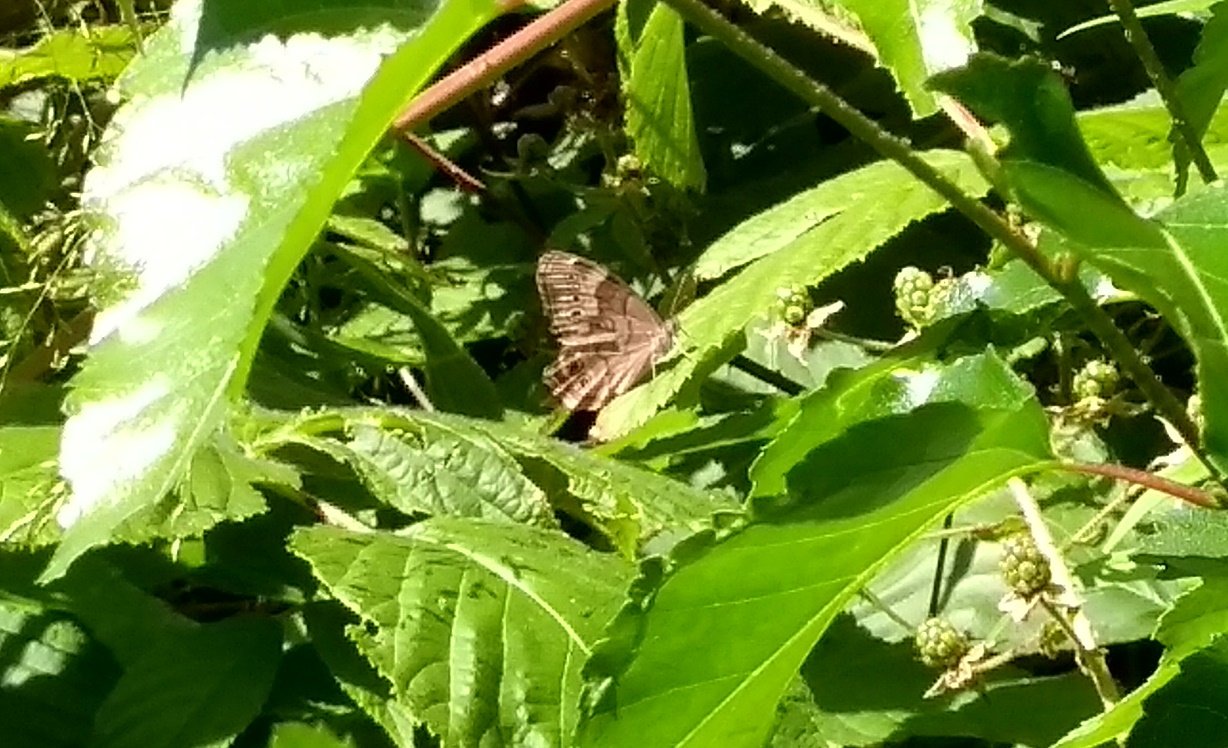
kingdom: Animalia
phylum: Arthropoda
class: Insecta
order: Lepidoptera
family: Nymphalidae
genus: Lethe
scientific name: Lethe anthedon
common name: Northern Pearly-Eye
